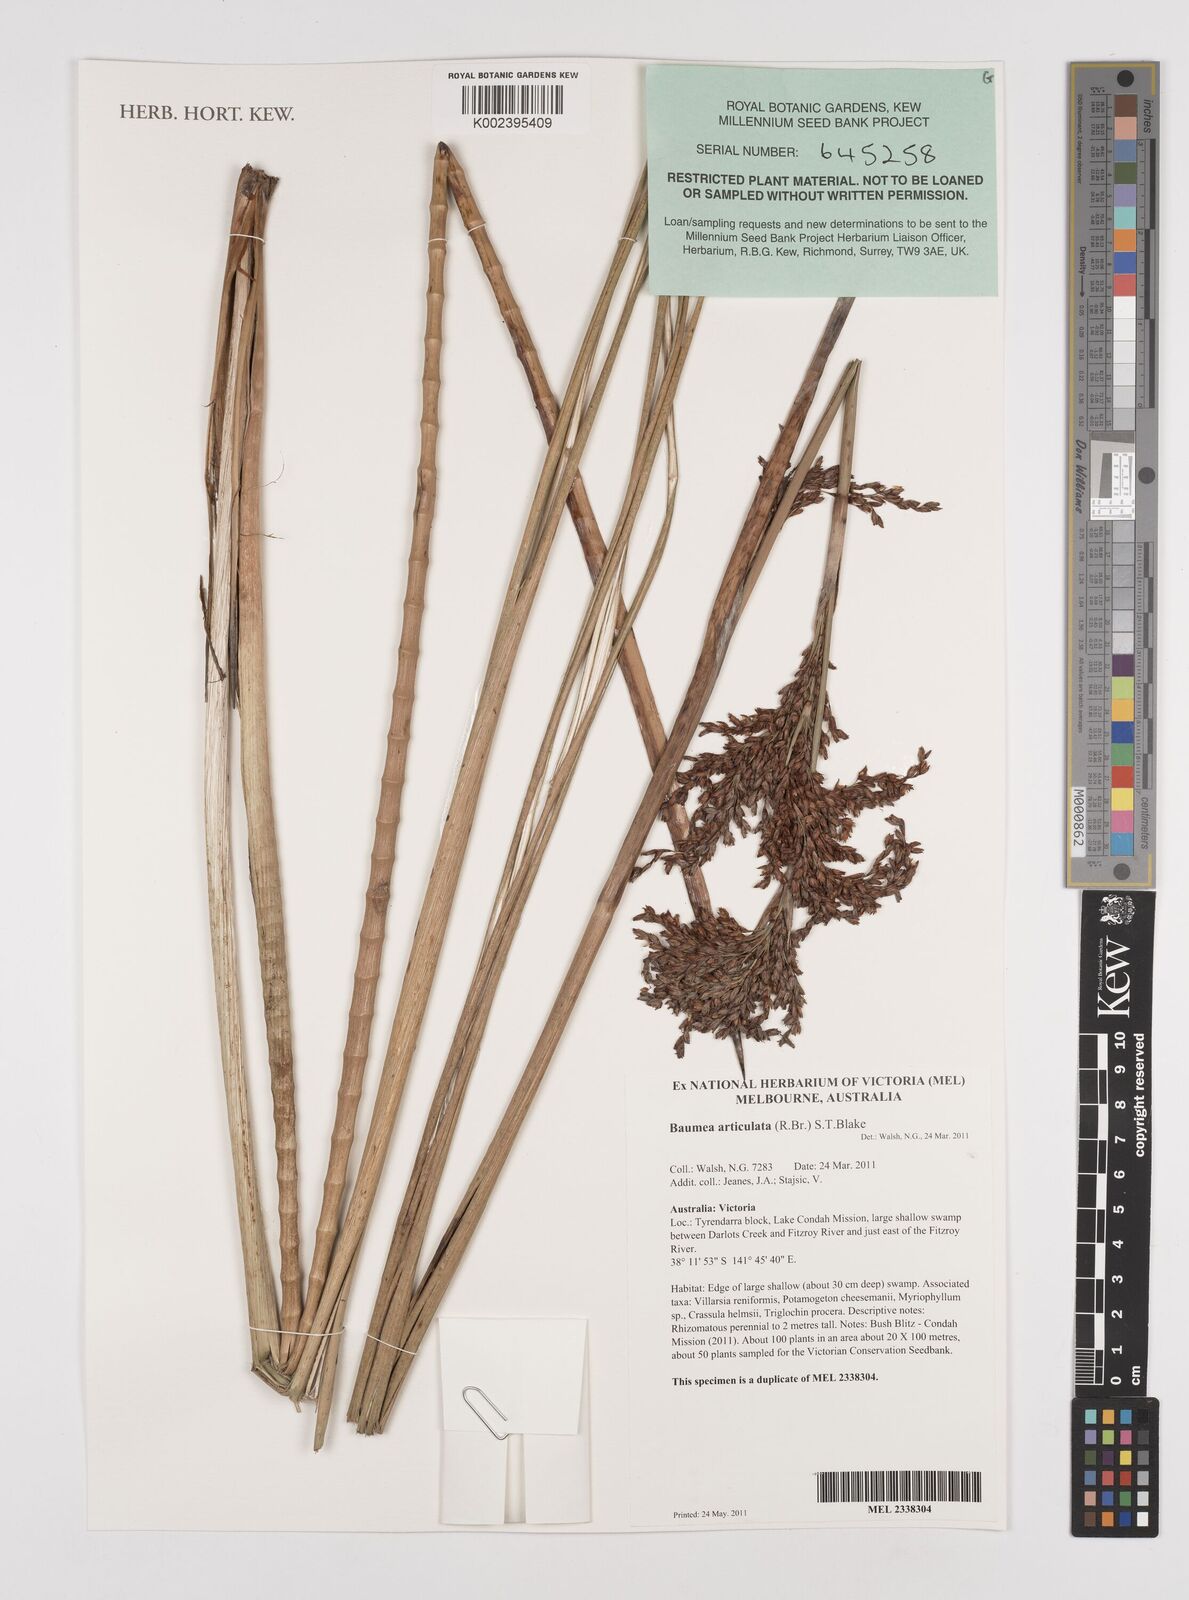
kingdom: Plantae
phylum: Tracheophyta
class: Liliopsida
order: Poales
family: Cyperaceae
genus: Machaerina
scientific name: Machaerina articulata
